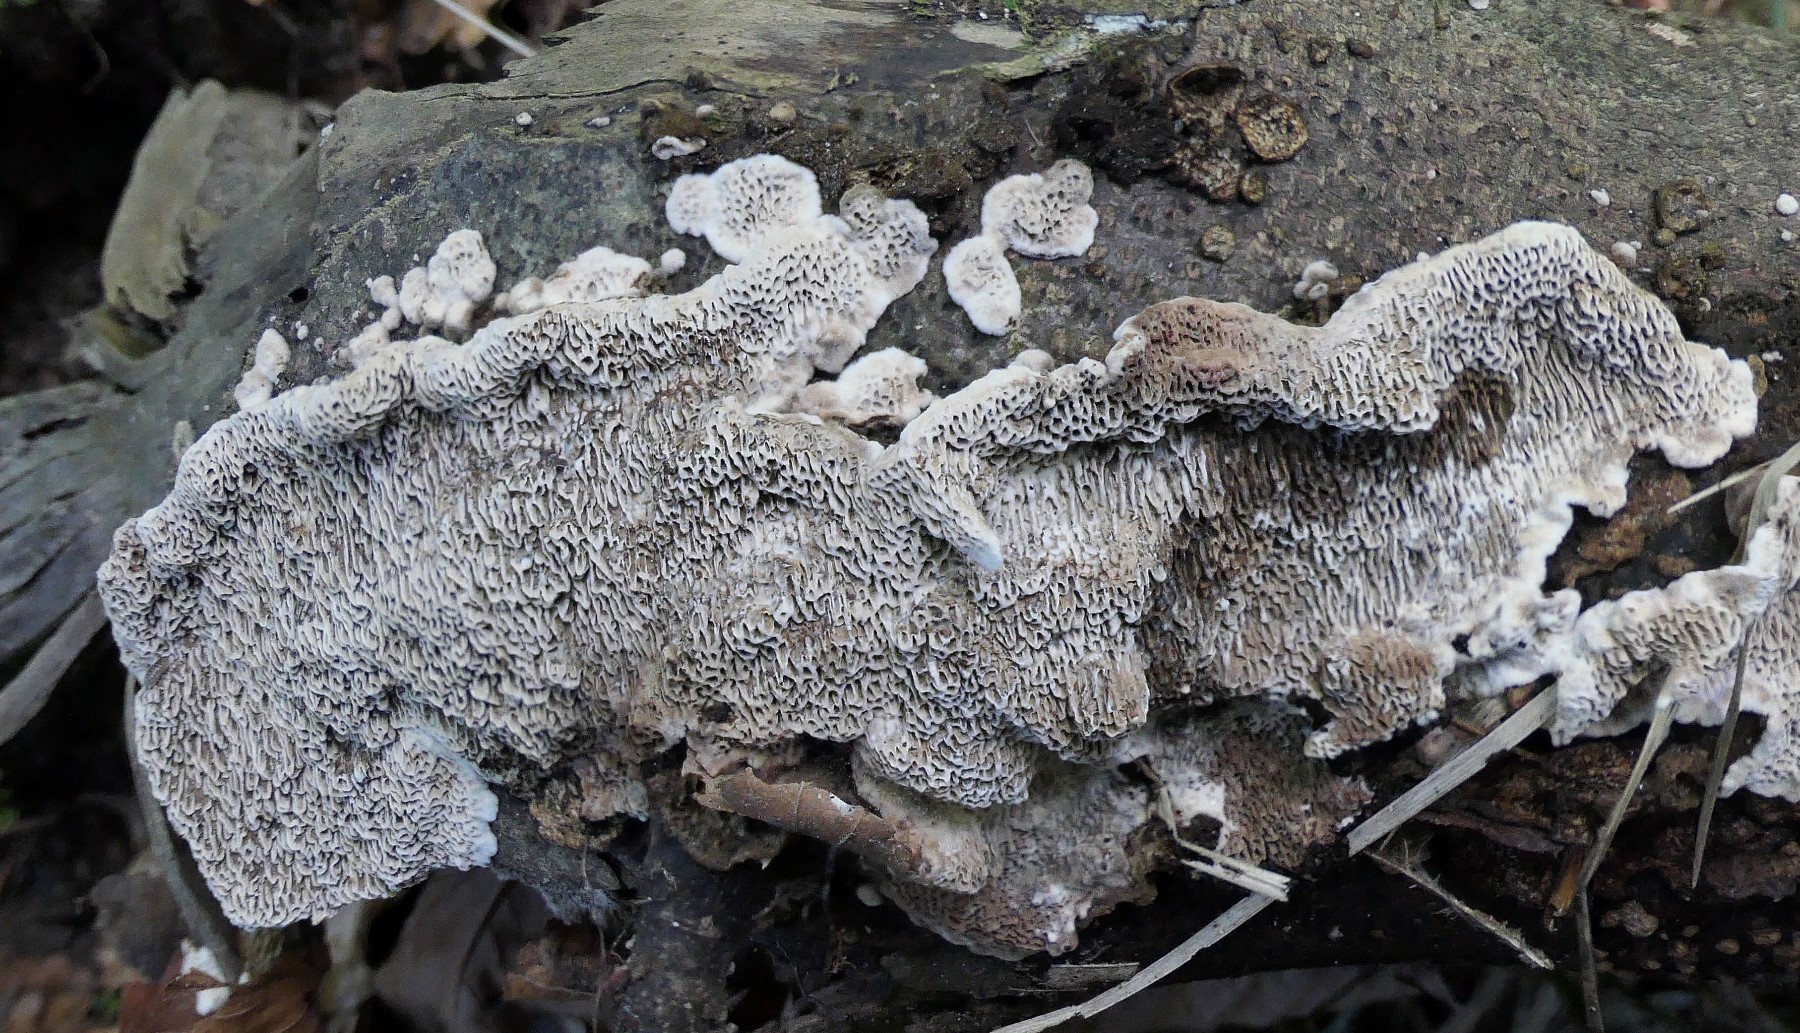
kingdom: Fungi
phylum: Basidiomycota
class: Agaricomycetes
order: Polyporales
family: Polyporaceae
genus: Podofomes
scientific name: Podofomes mollis
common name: blød begporesvamp
